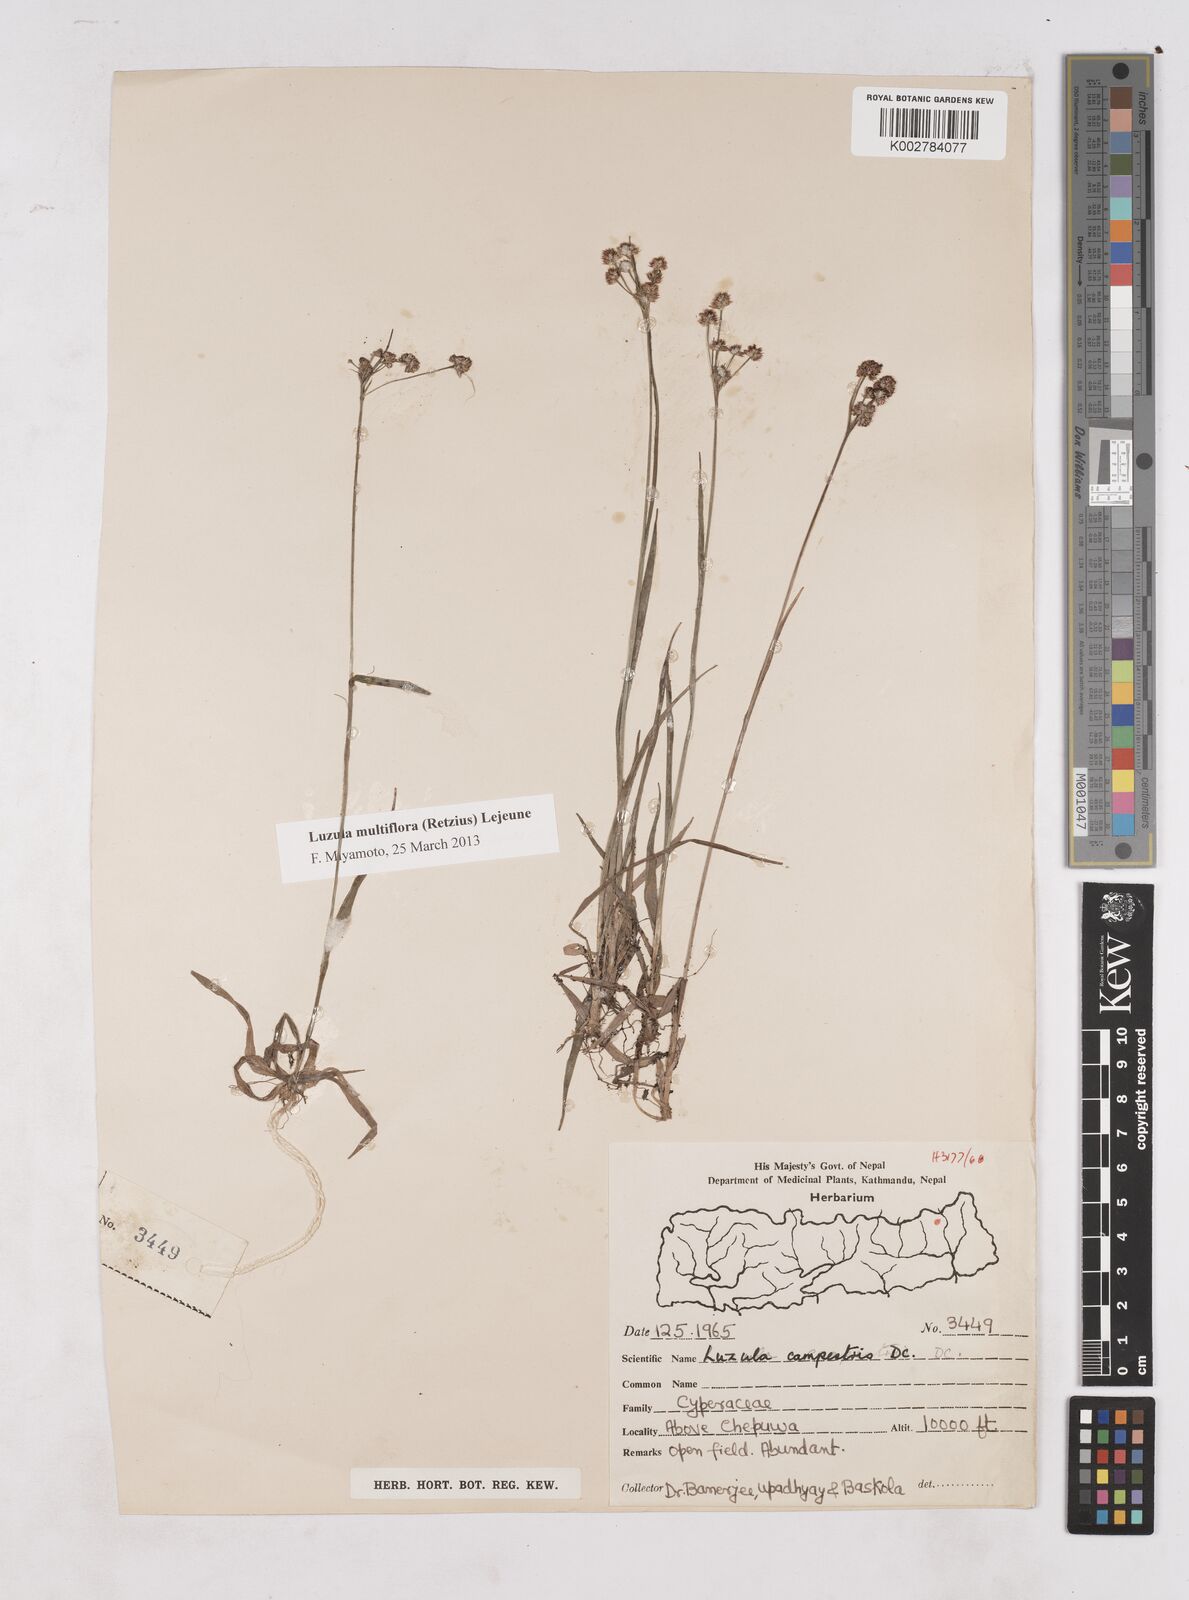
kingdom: Plantae
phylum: Tracheophyta
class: Liliopsida
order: Poales
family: Juncaceae
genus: Luzula
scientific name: Luzula campestris
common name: Field wood-rush
